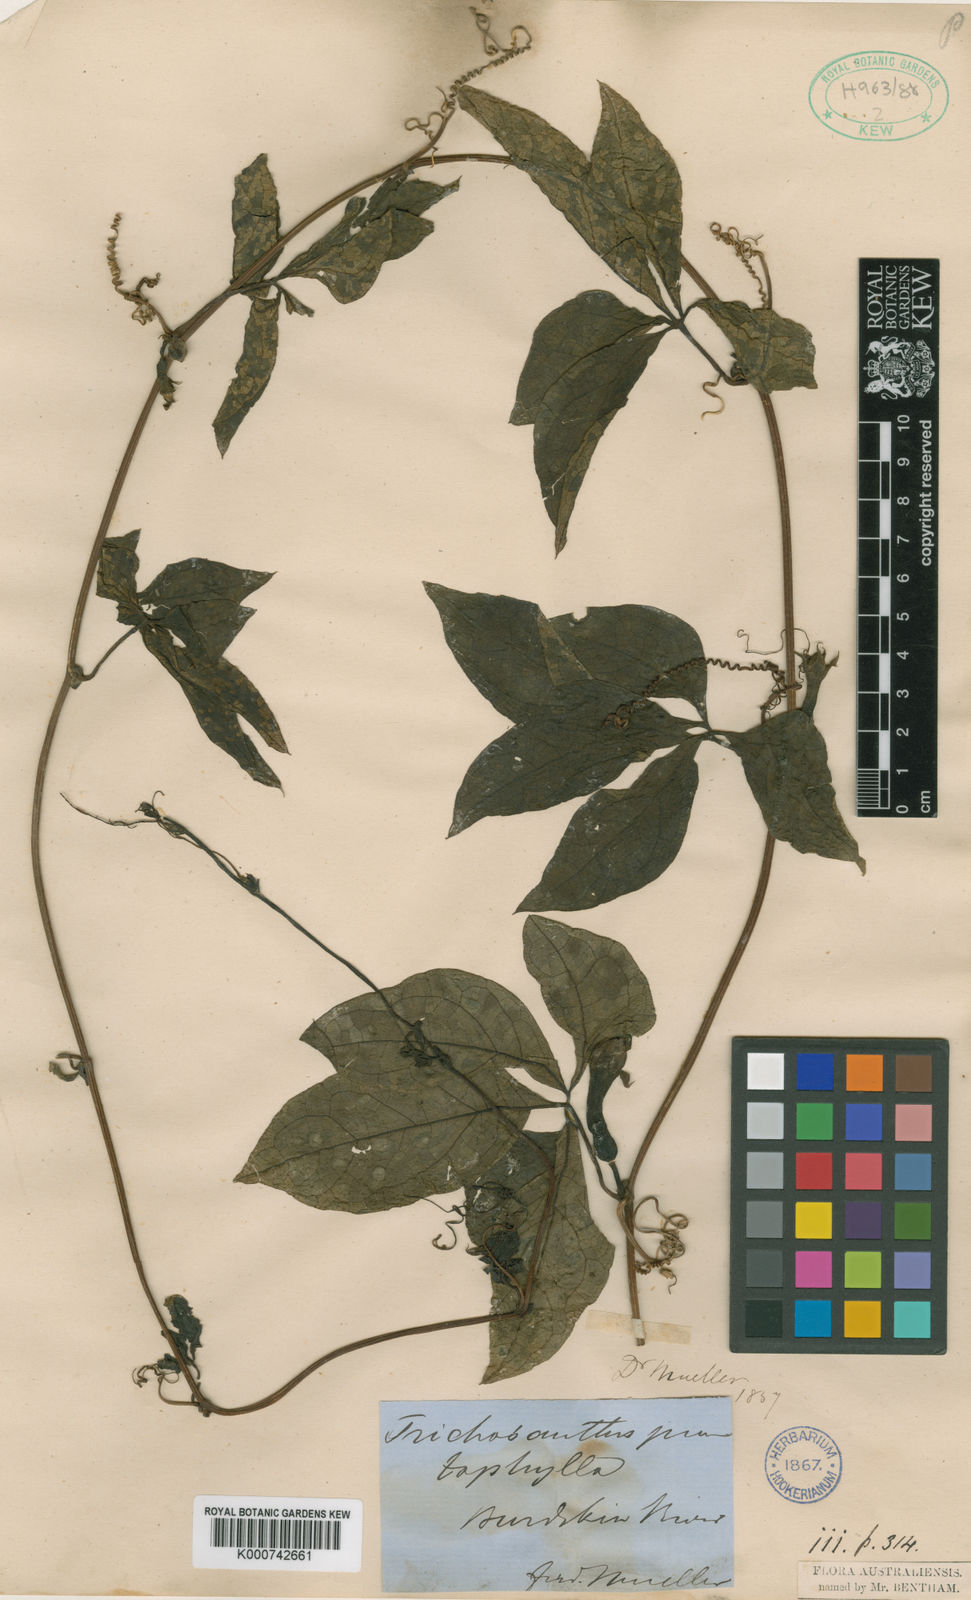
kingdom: Plantae
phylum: Tracheophyta
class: Magnoliopsida
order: Cucurbitales
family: Cucurbitaceae
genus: Trichosanthes
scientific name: Trichosanthes pentaphylla
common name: Red gourd
